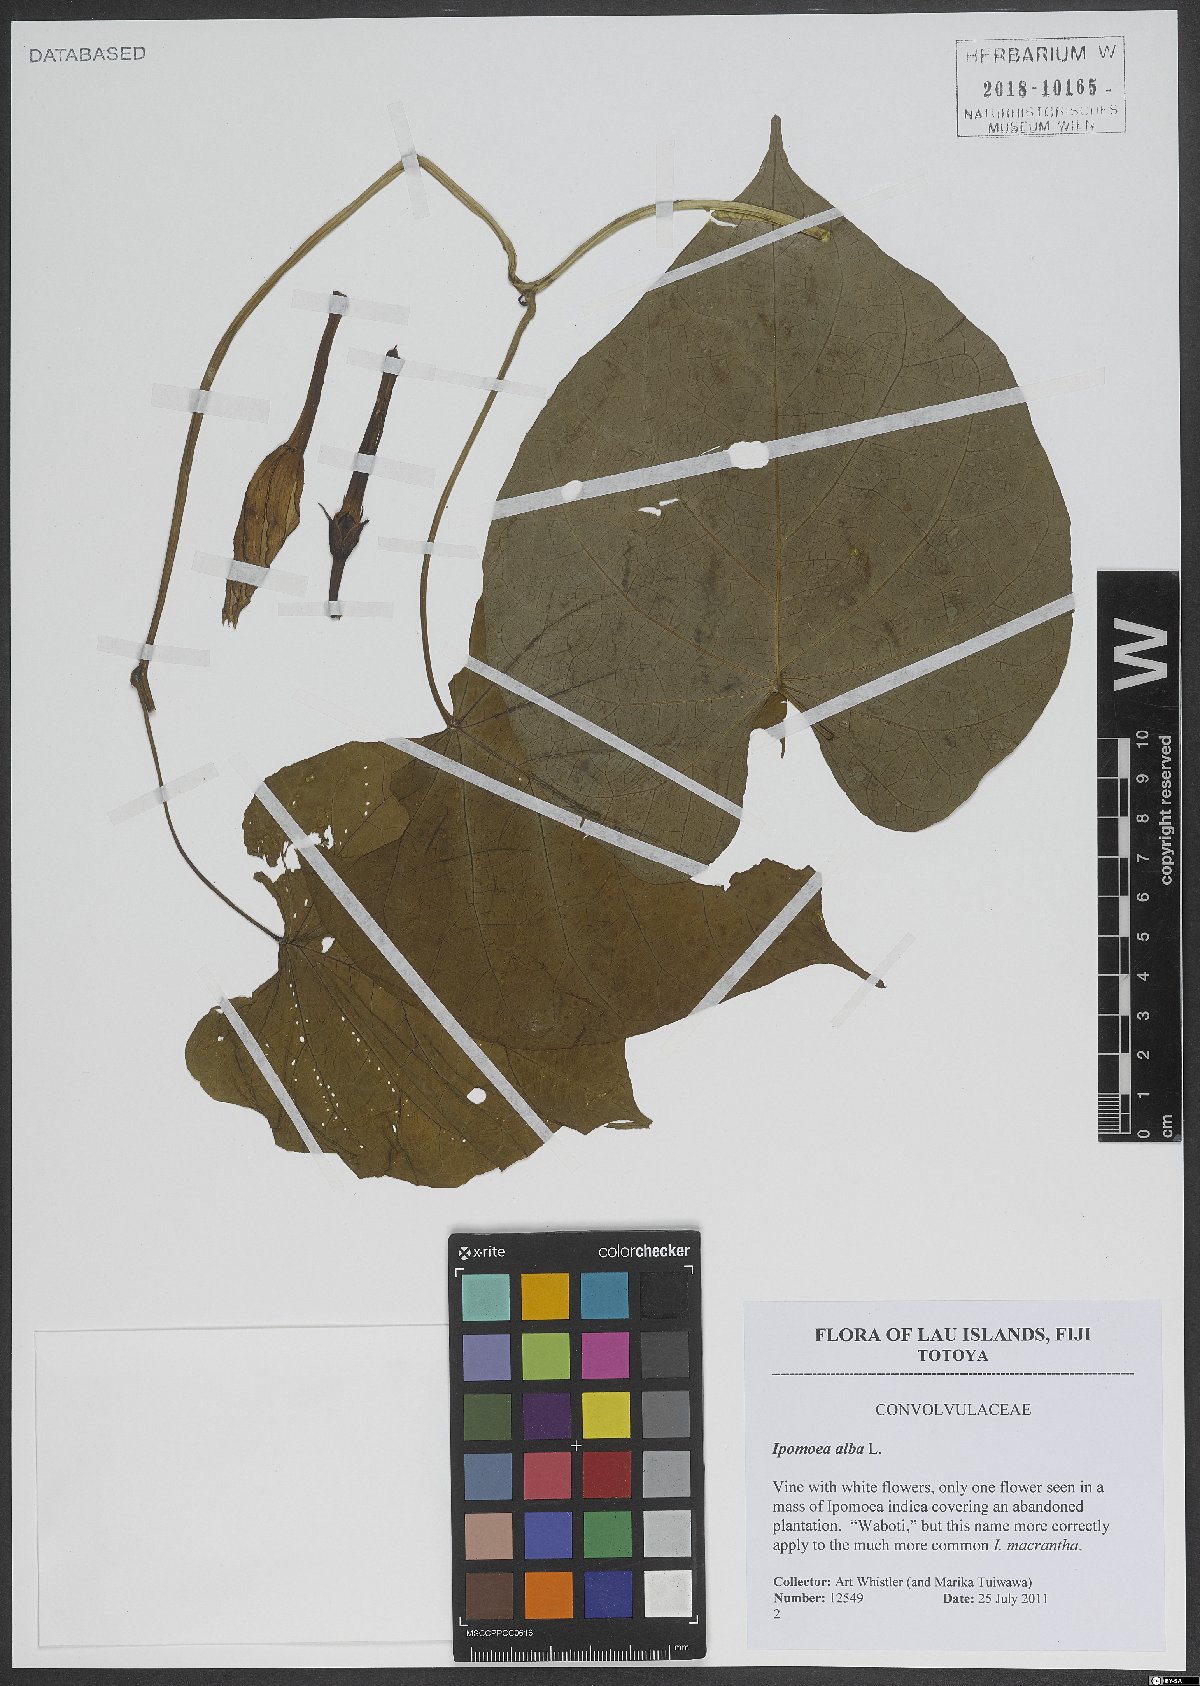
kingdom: Plantae
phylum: Tracheophyta
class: Magnoliopsida
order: Solanales
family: Convolvulaceae
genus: Ipomoea
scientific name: Ipomoea alba
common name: Moonflower
